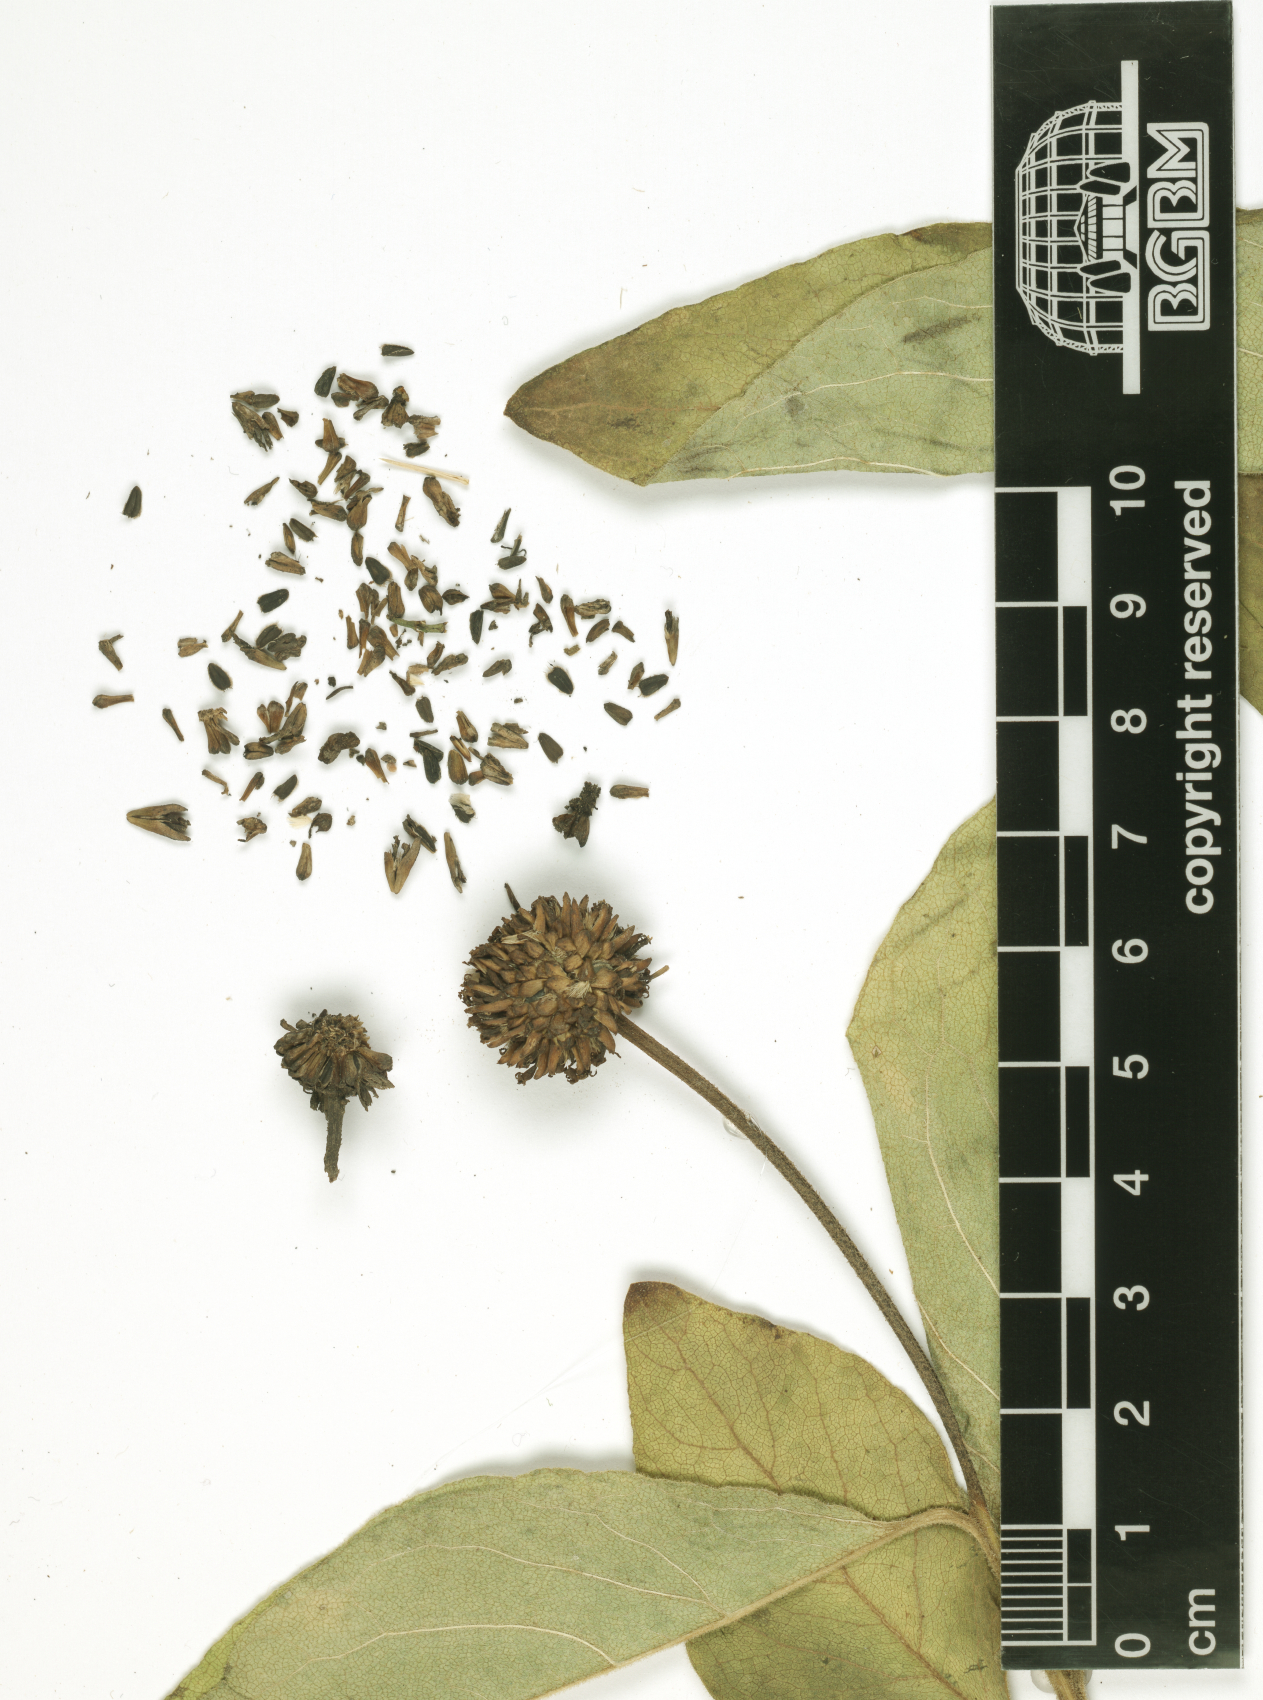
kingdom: Plantae
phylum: Tracheophyta
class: Magnoliopsida
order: Asterales
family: Asteraceae
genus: Blepharispermum
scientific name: Blepharispermum hirtum
